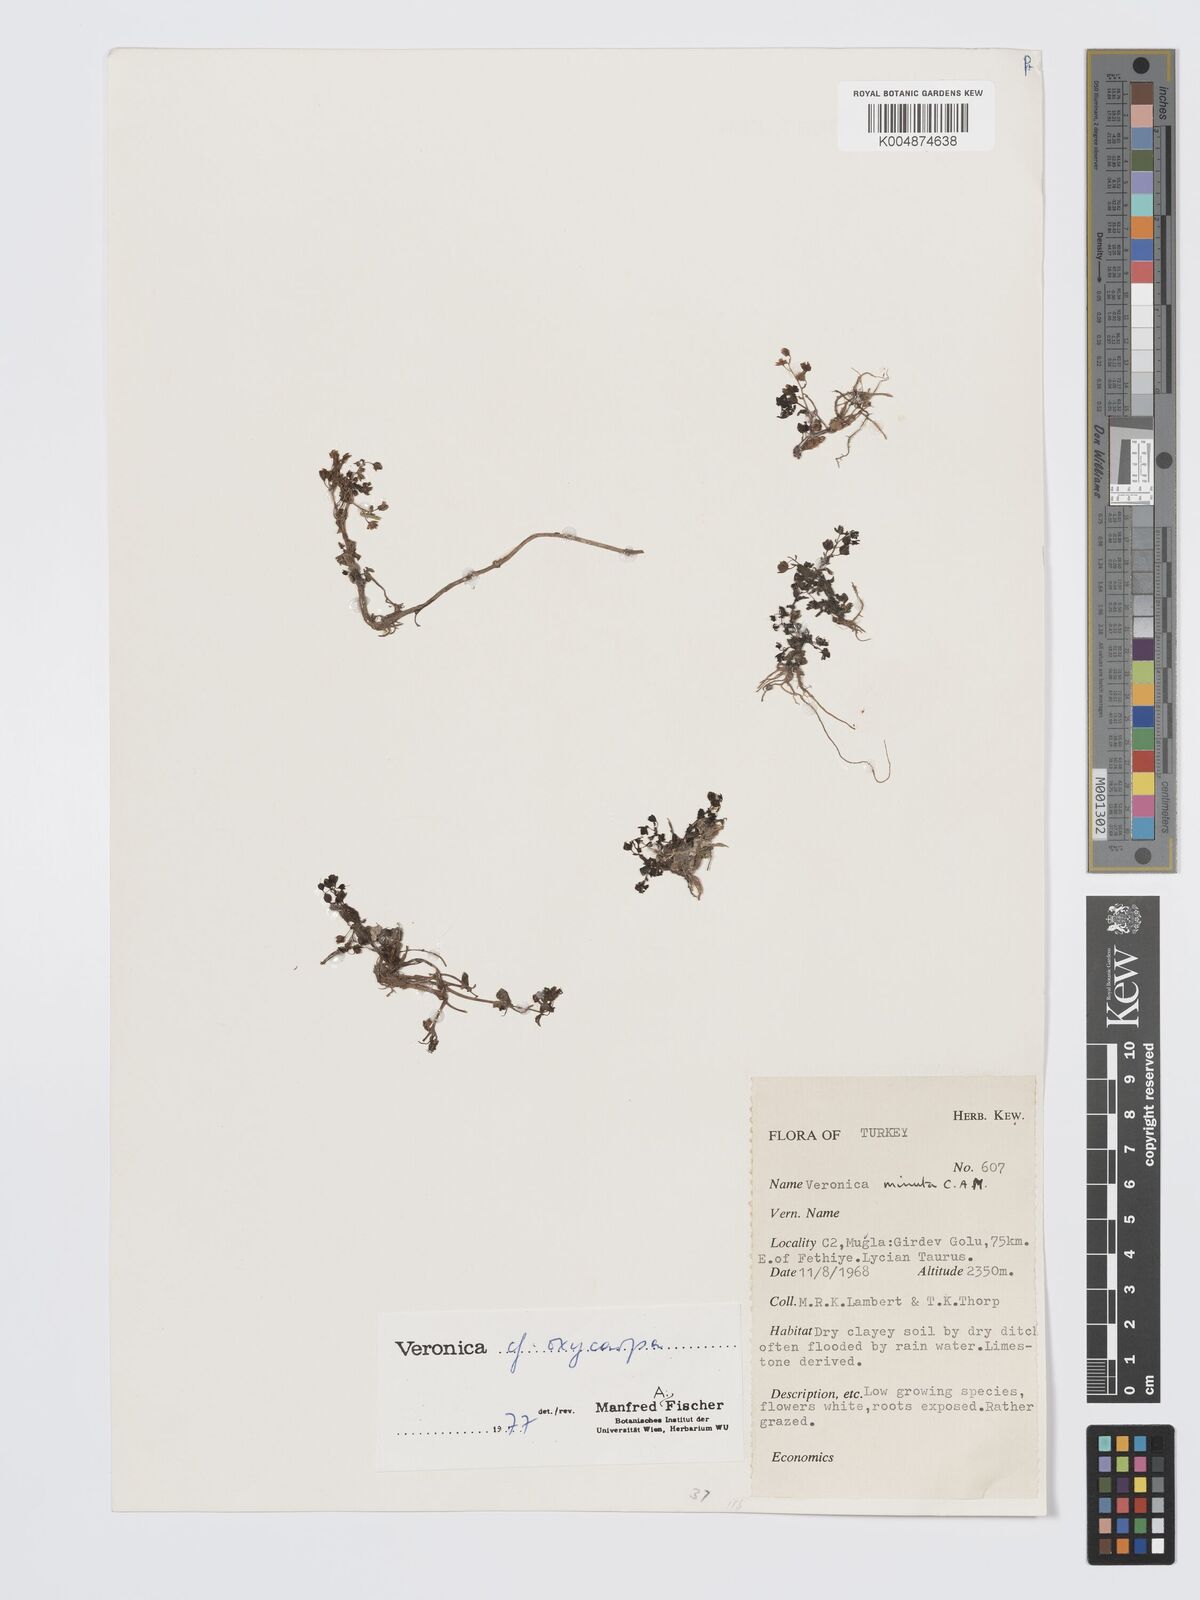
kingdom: Plantae
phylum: Tracheophyta
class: Magnoliopsida
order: Lamiales
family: Plantaginaceae
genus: Veronica
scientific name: Veronica
